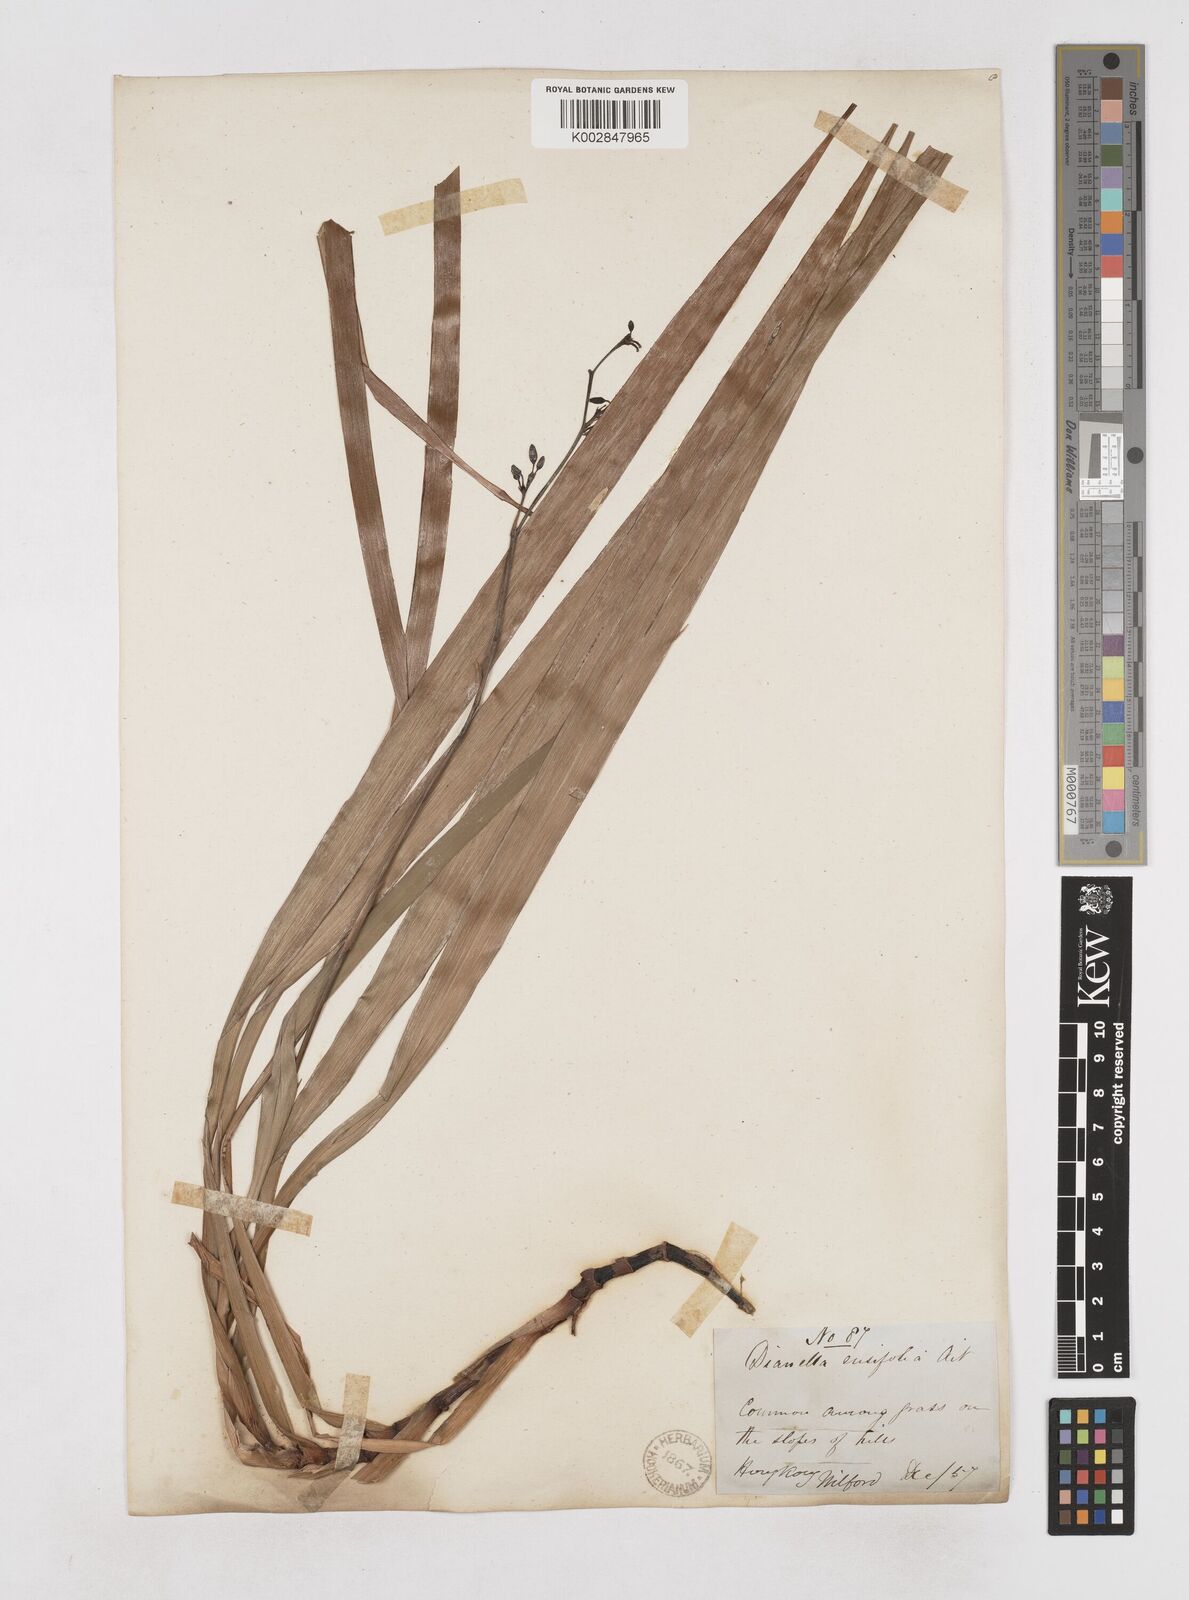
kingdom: Plantae
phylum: Tracheophyta
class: Liliopsida
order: Asparagales
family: Asphodelaceae
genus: Dianella
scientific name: Dianella ensifolia
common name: New zealand lilyplant
